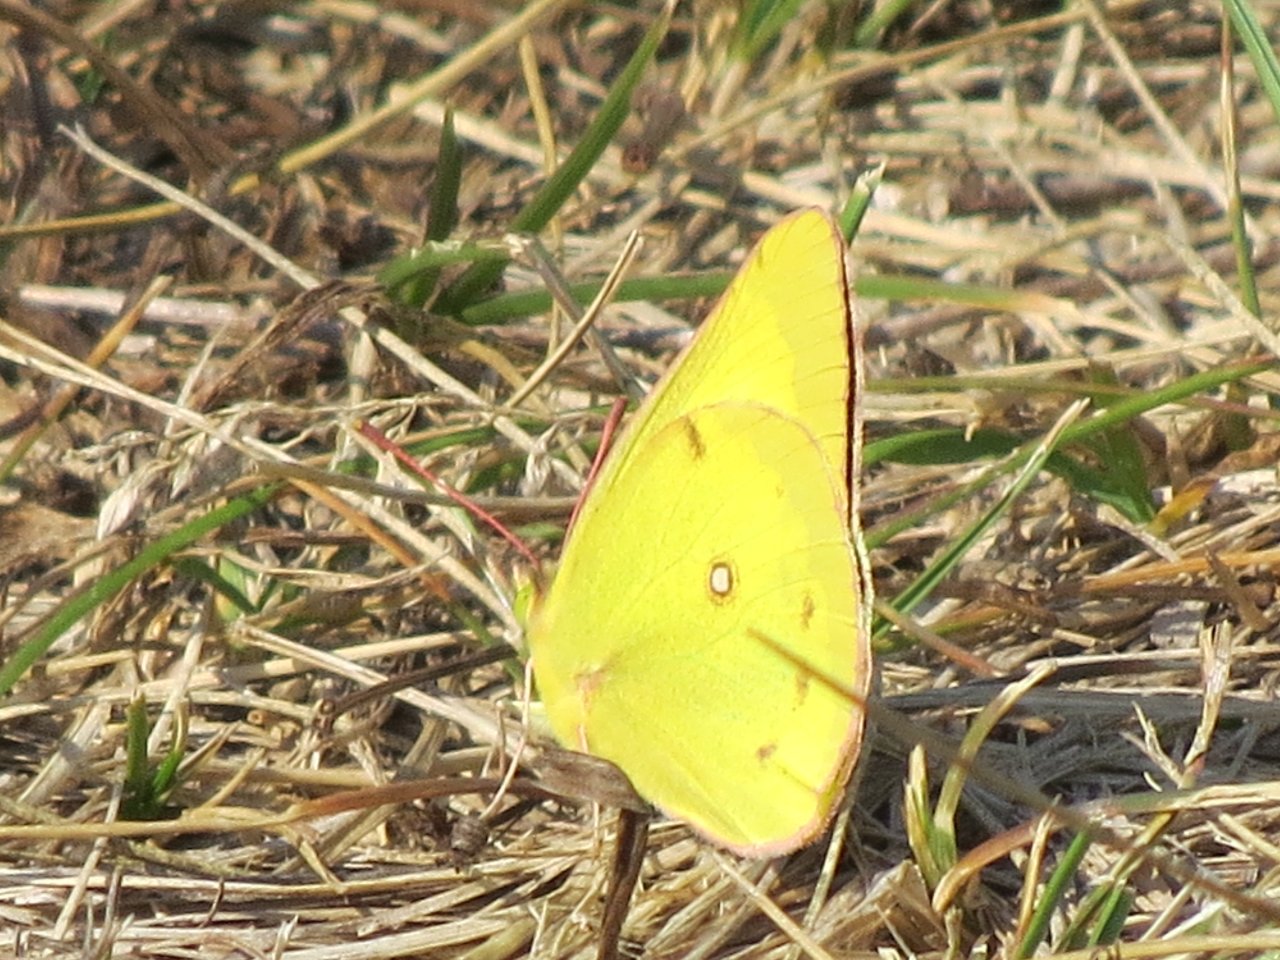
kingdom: Animalia
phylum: Arthropoda
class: Insecta
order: Lepidoptera
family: Pieridae
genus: Colias
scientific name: Colias philodice
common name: Clouded Sulphur
